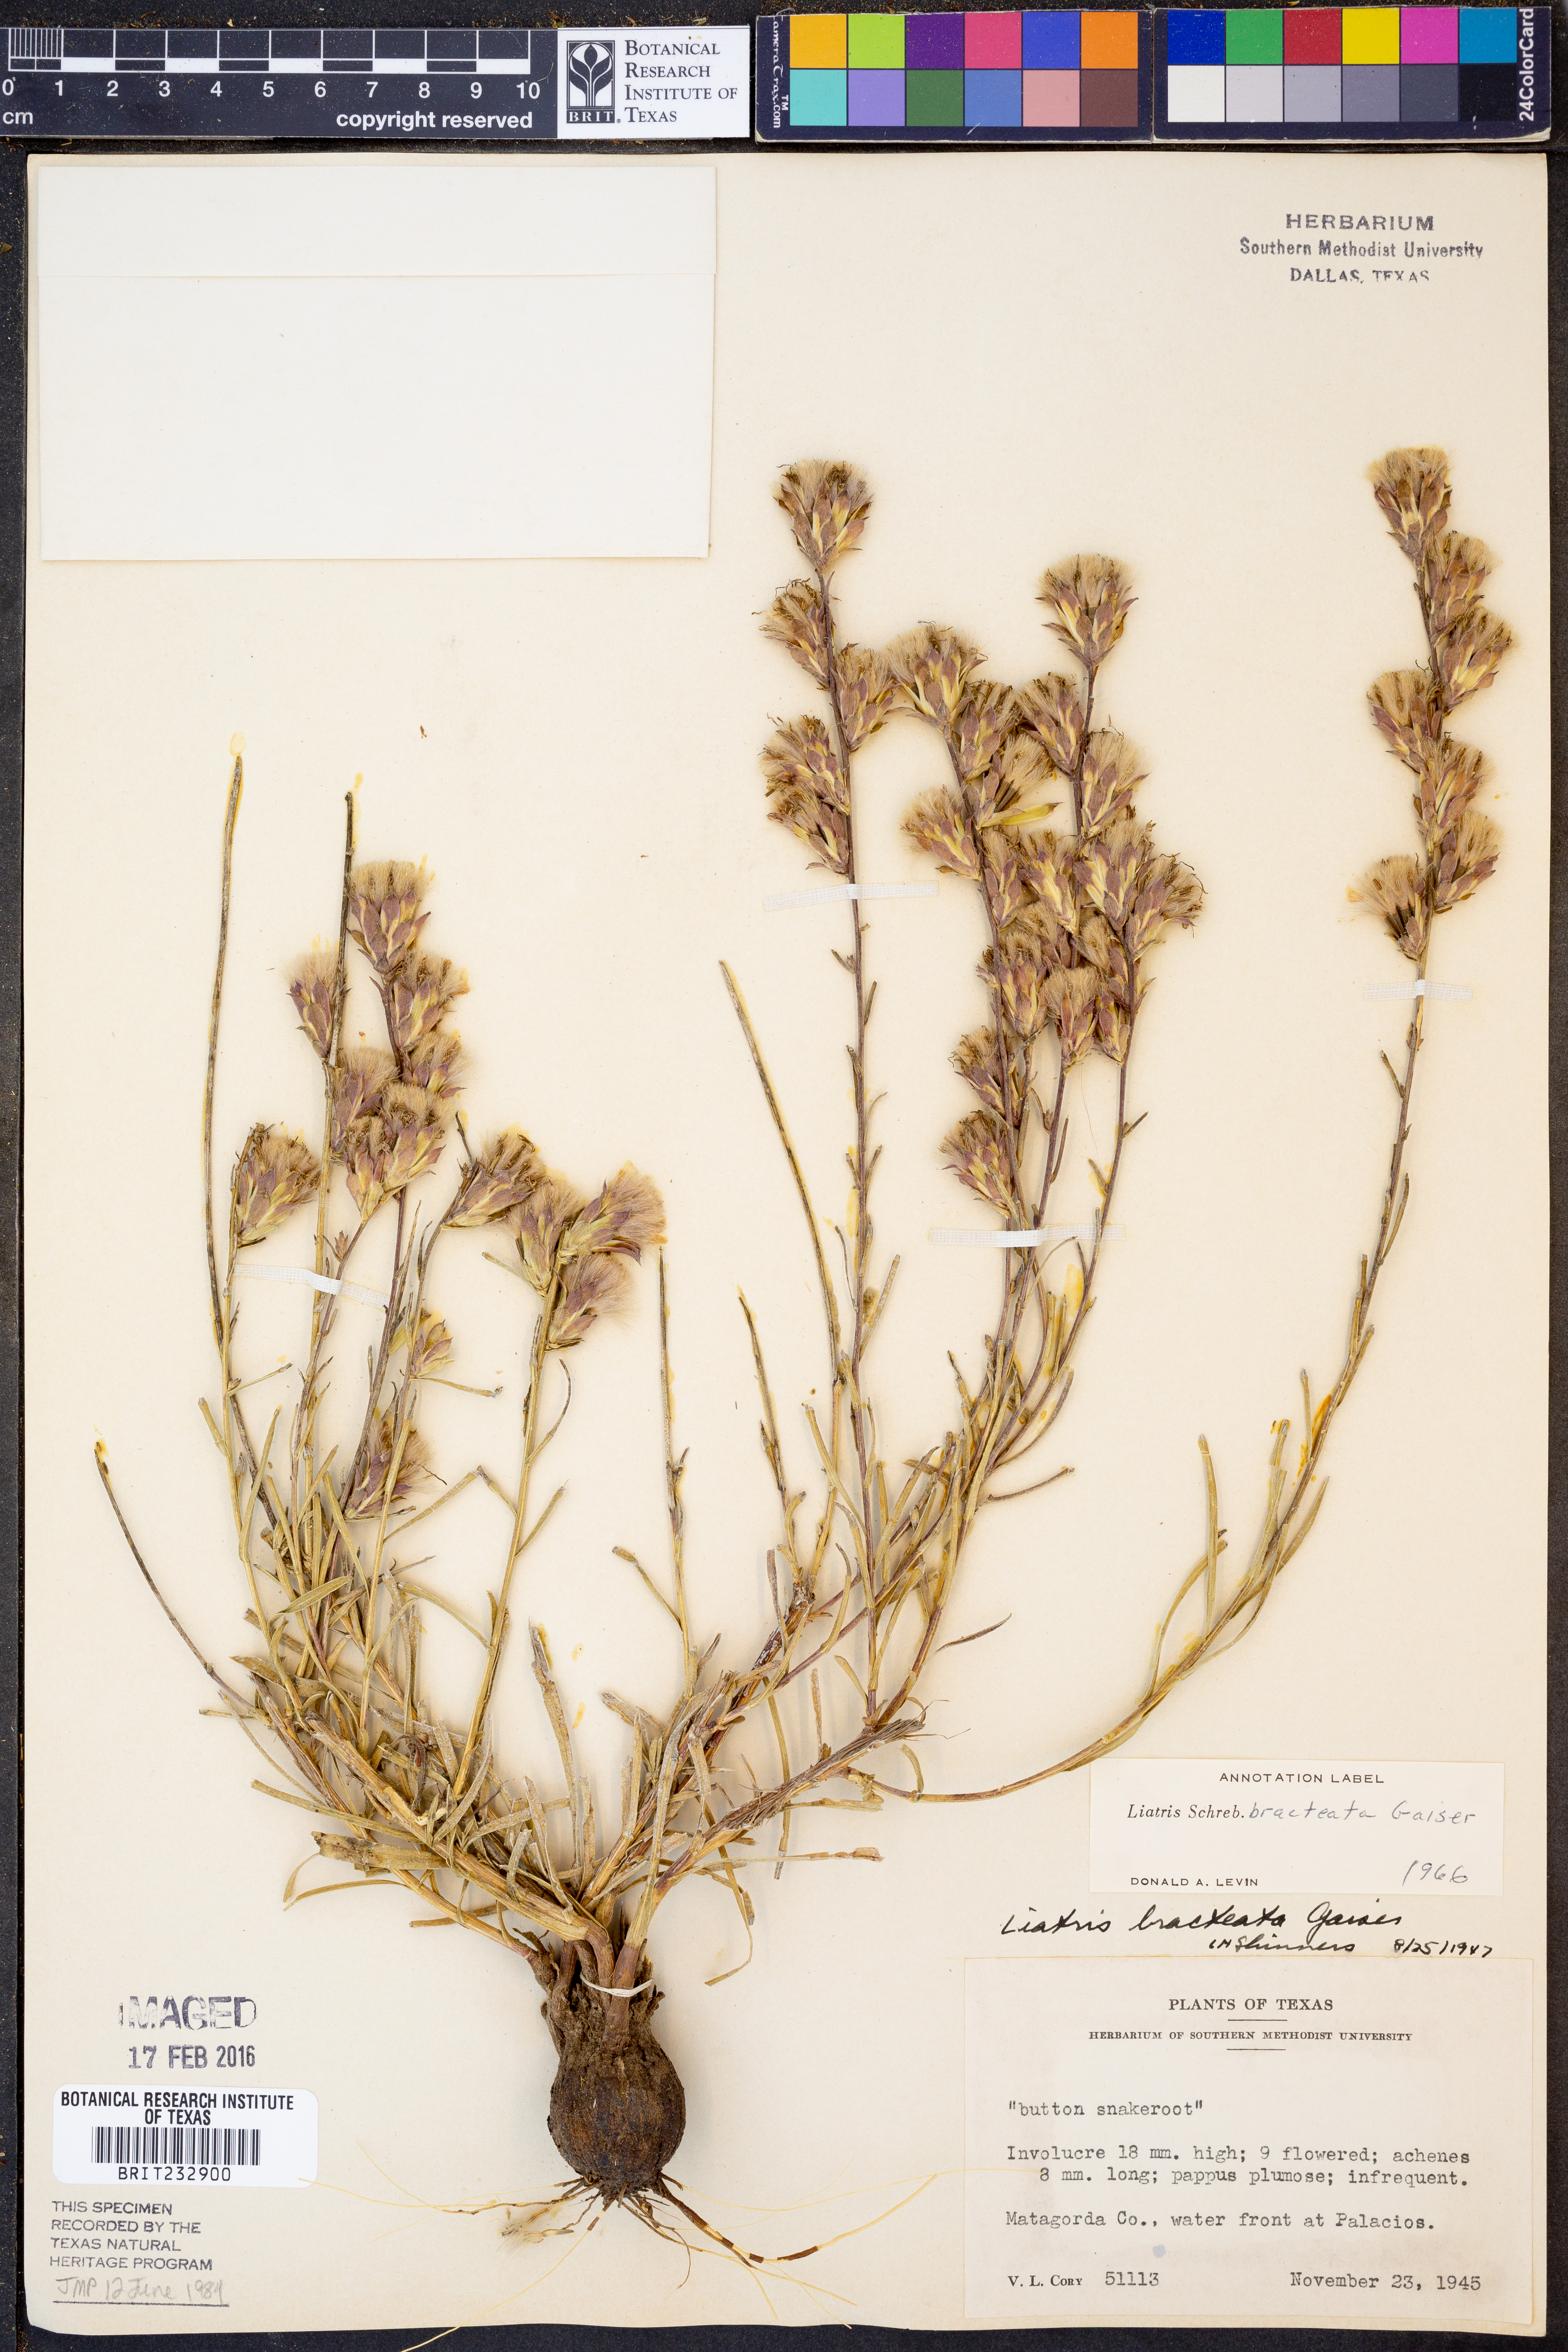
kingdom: Plantae
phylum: Tracheophyta
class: Magnoliopsida
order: Asterales
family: Asteraceae
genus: Liatris
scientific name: Liatris bracteata
